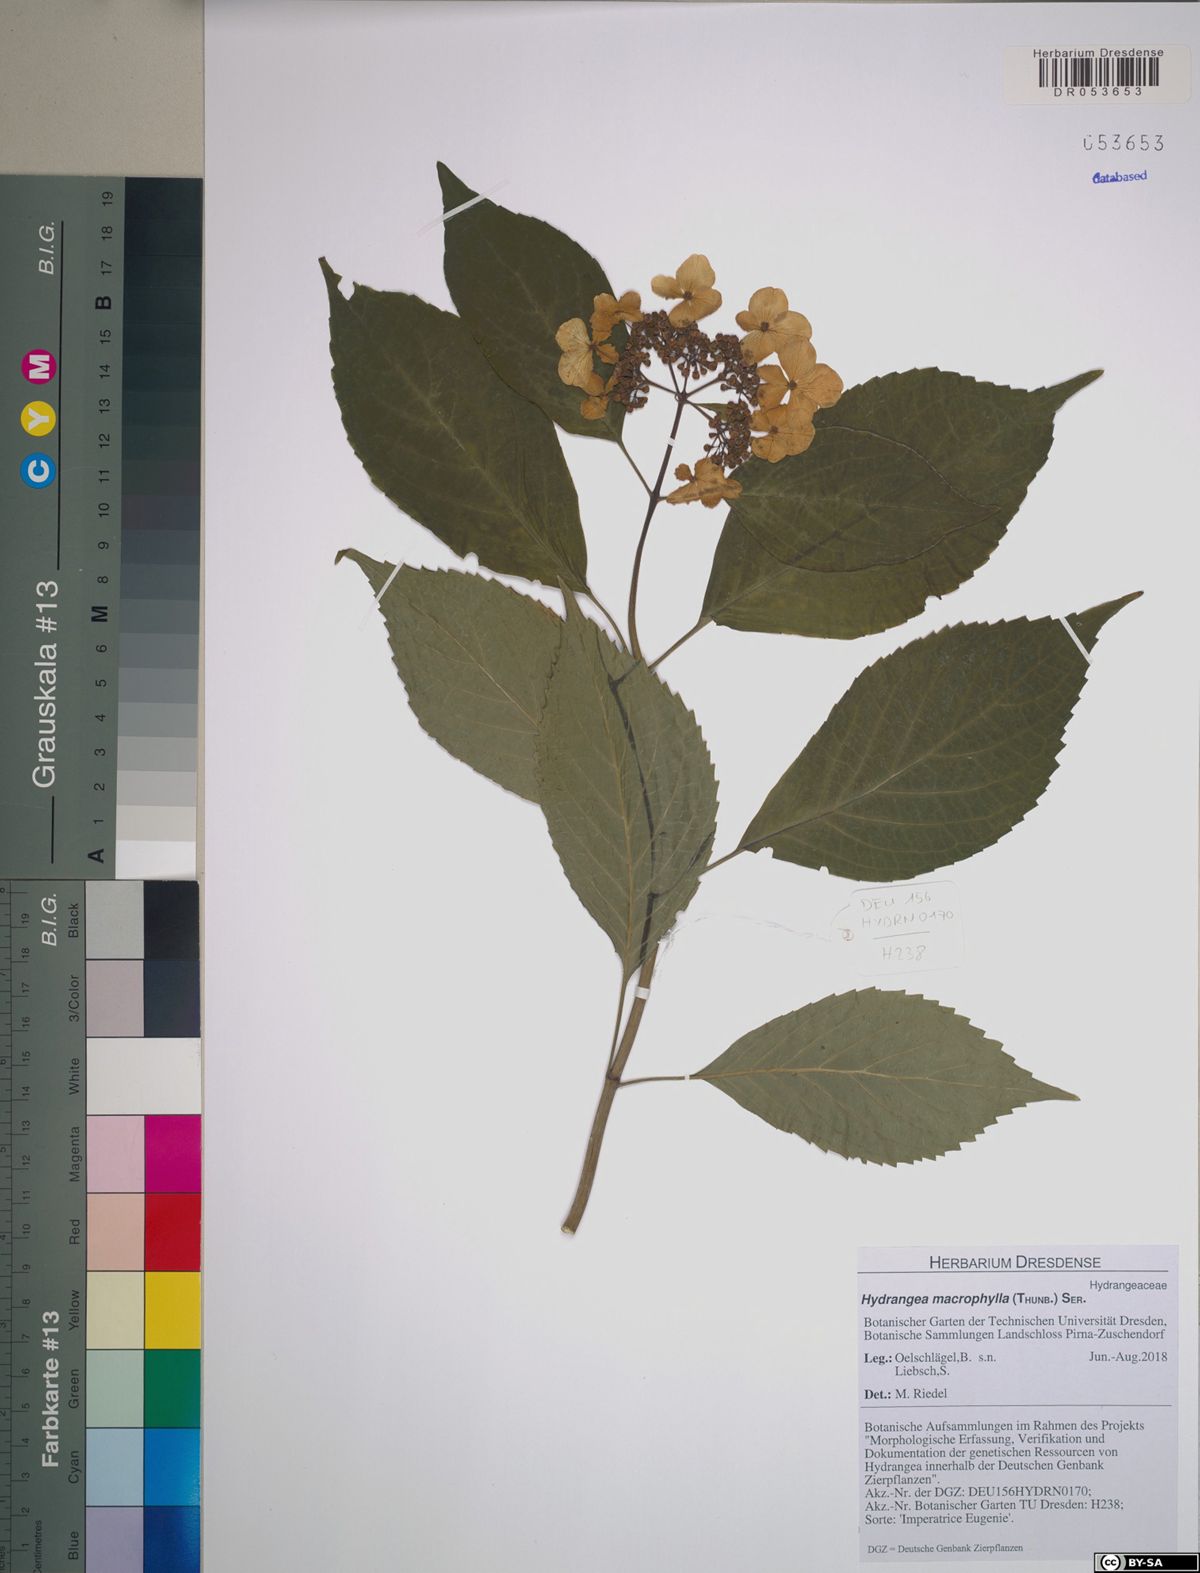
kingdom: Plantae
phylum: Tracheophyta
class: Magnoliopsida
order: Cornales
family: Hydrangeaceae
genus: Hydrangea
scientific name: Hydrangea macrophylla
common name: Hydrangea
